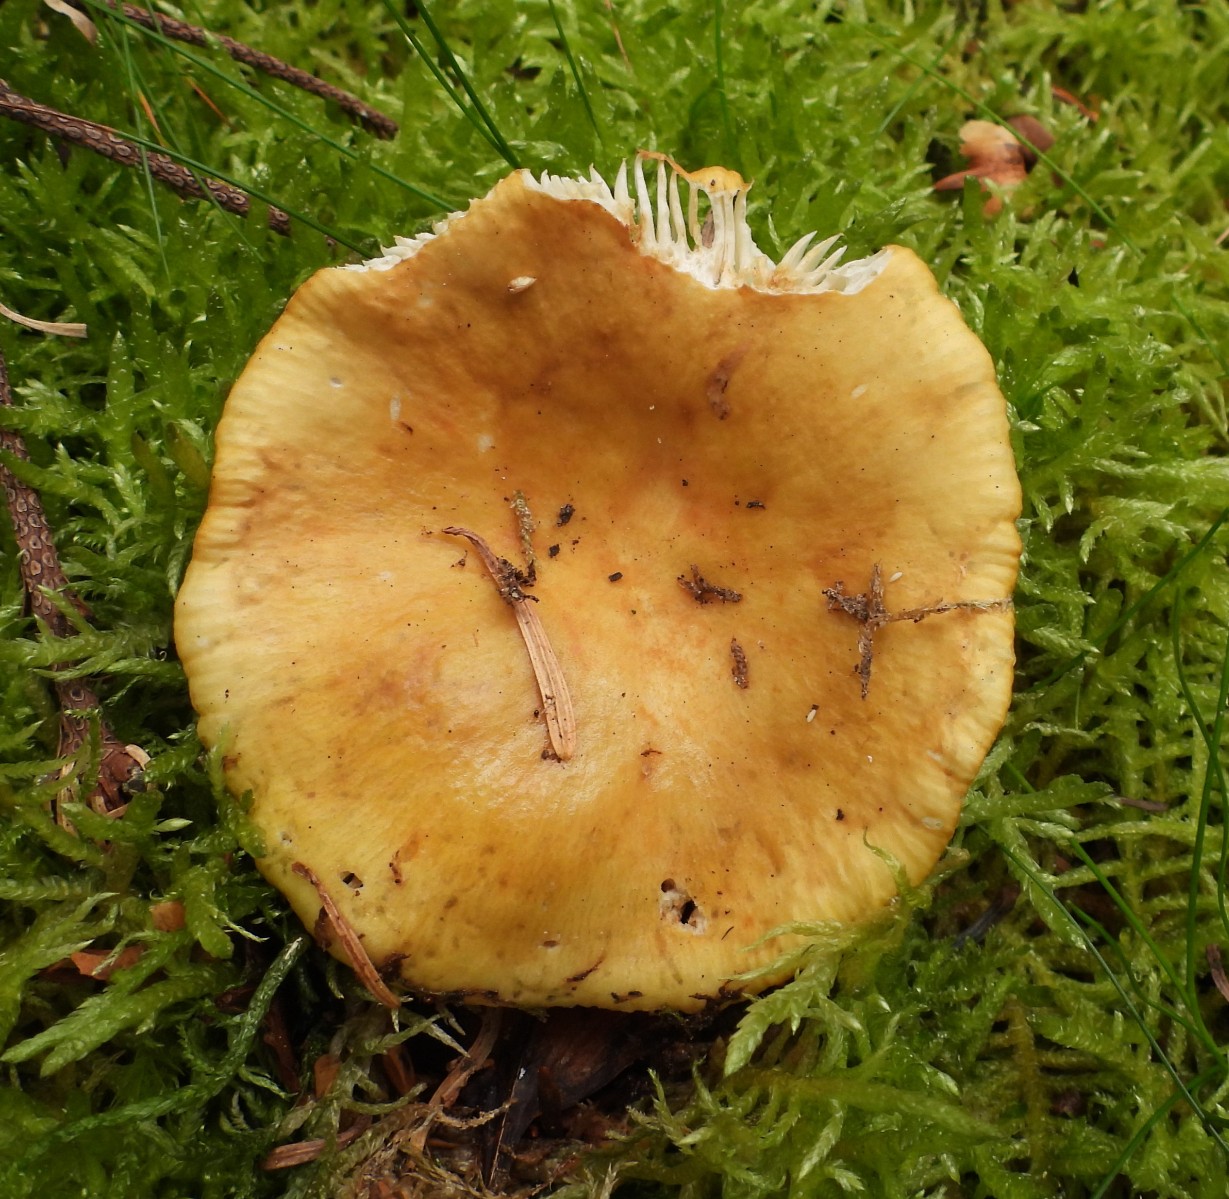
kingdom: Fungi
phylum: Basidiomycota
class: Agaricomycetes
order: Russulales
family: Russulaceae
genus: Russula
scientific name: Russula ochroleuca
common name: okkergul skørhat
